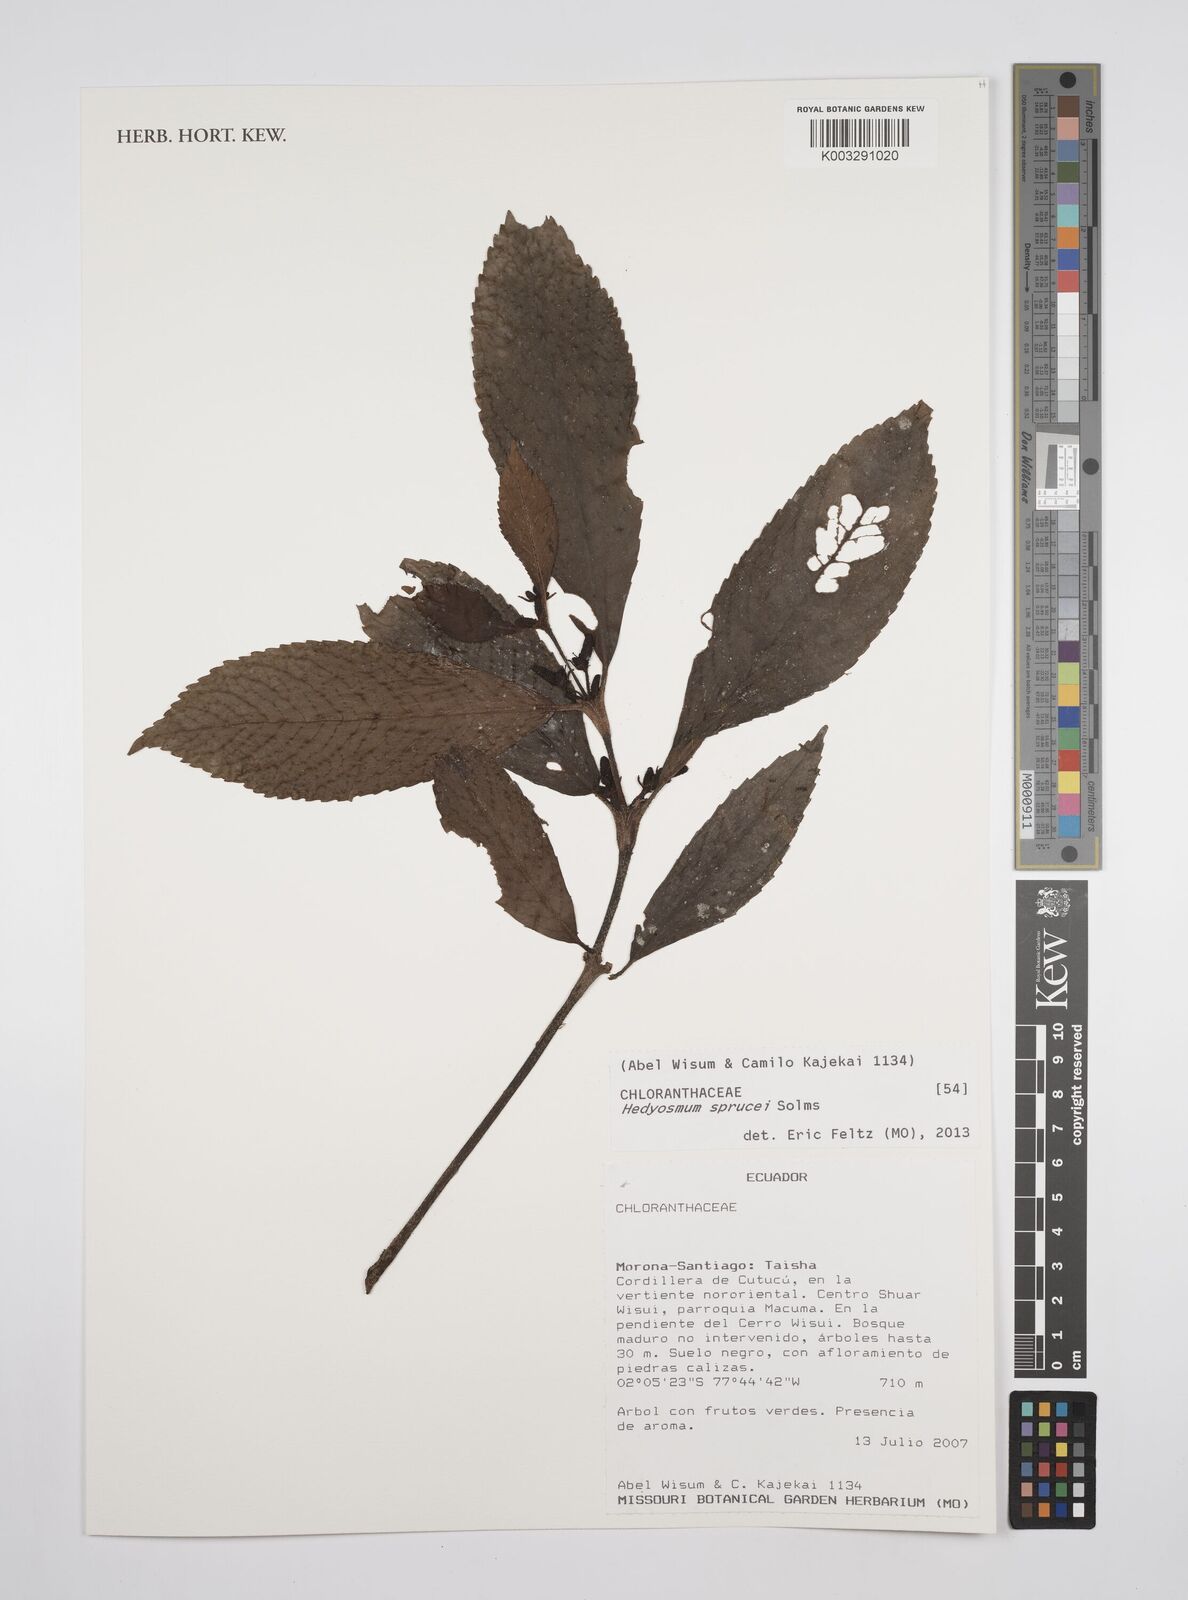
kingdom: Plantae
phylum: Tracheophyta
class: Magnoliopsida
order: Chloranthales
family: Chloranthaceae
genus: Hedyosmum
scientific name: Hedyosmum sprucei
